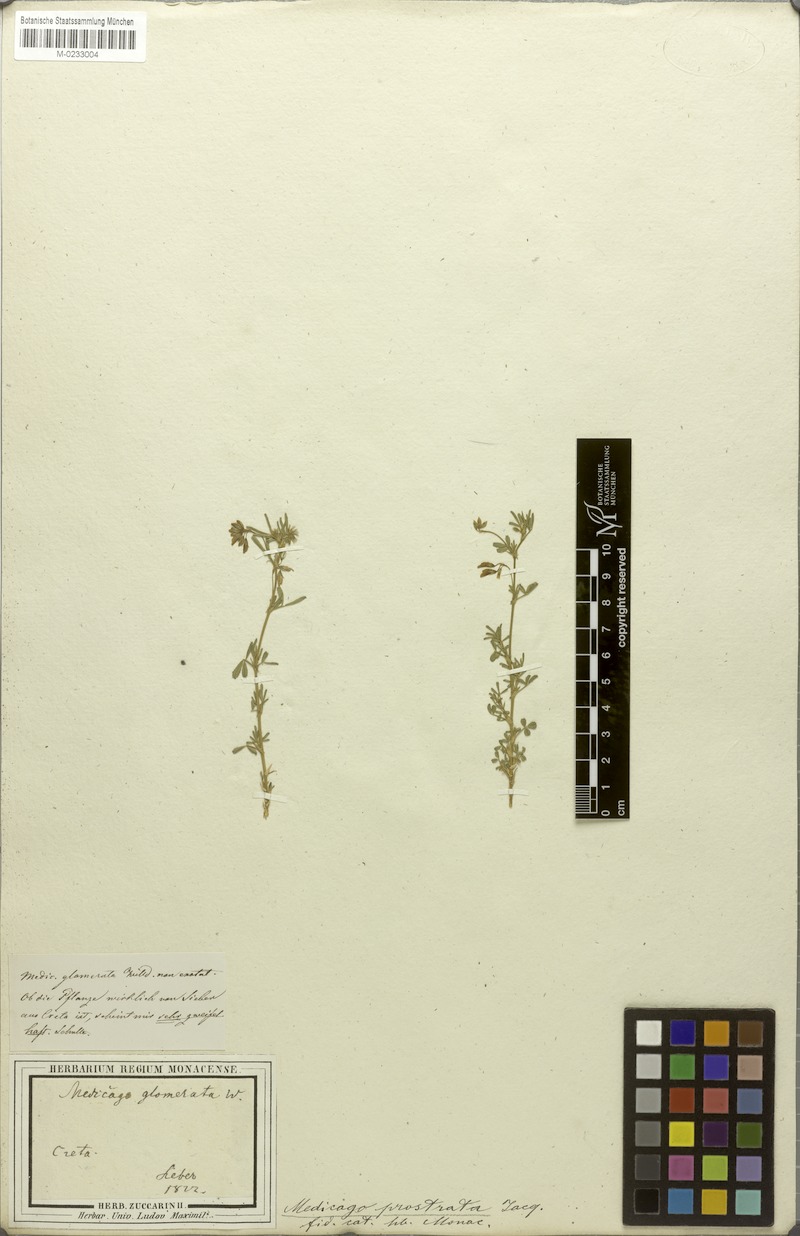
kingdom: Plantae
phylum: Tracheophyta
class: Magnoliopsida
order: Fabales
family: Fabaceae
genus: Medicago
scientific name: Medicago prostrata
